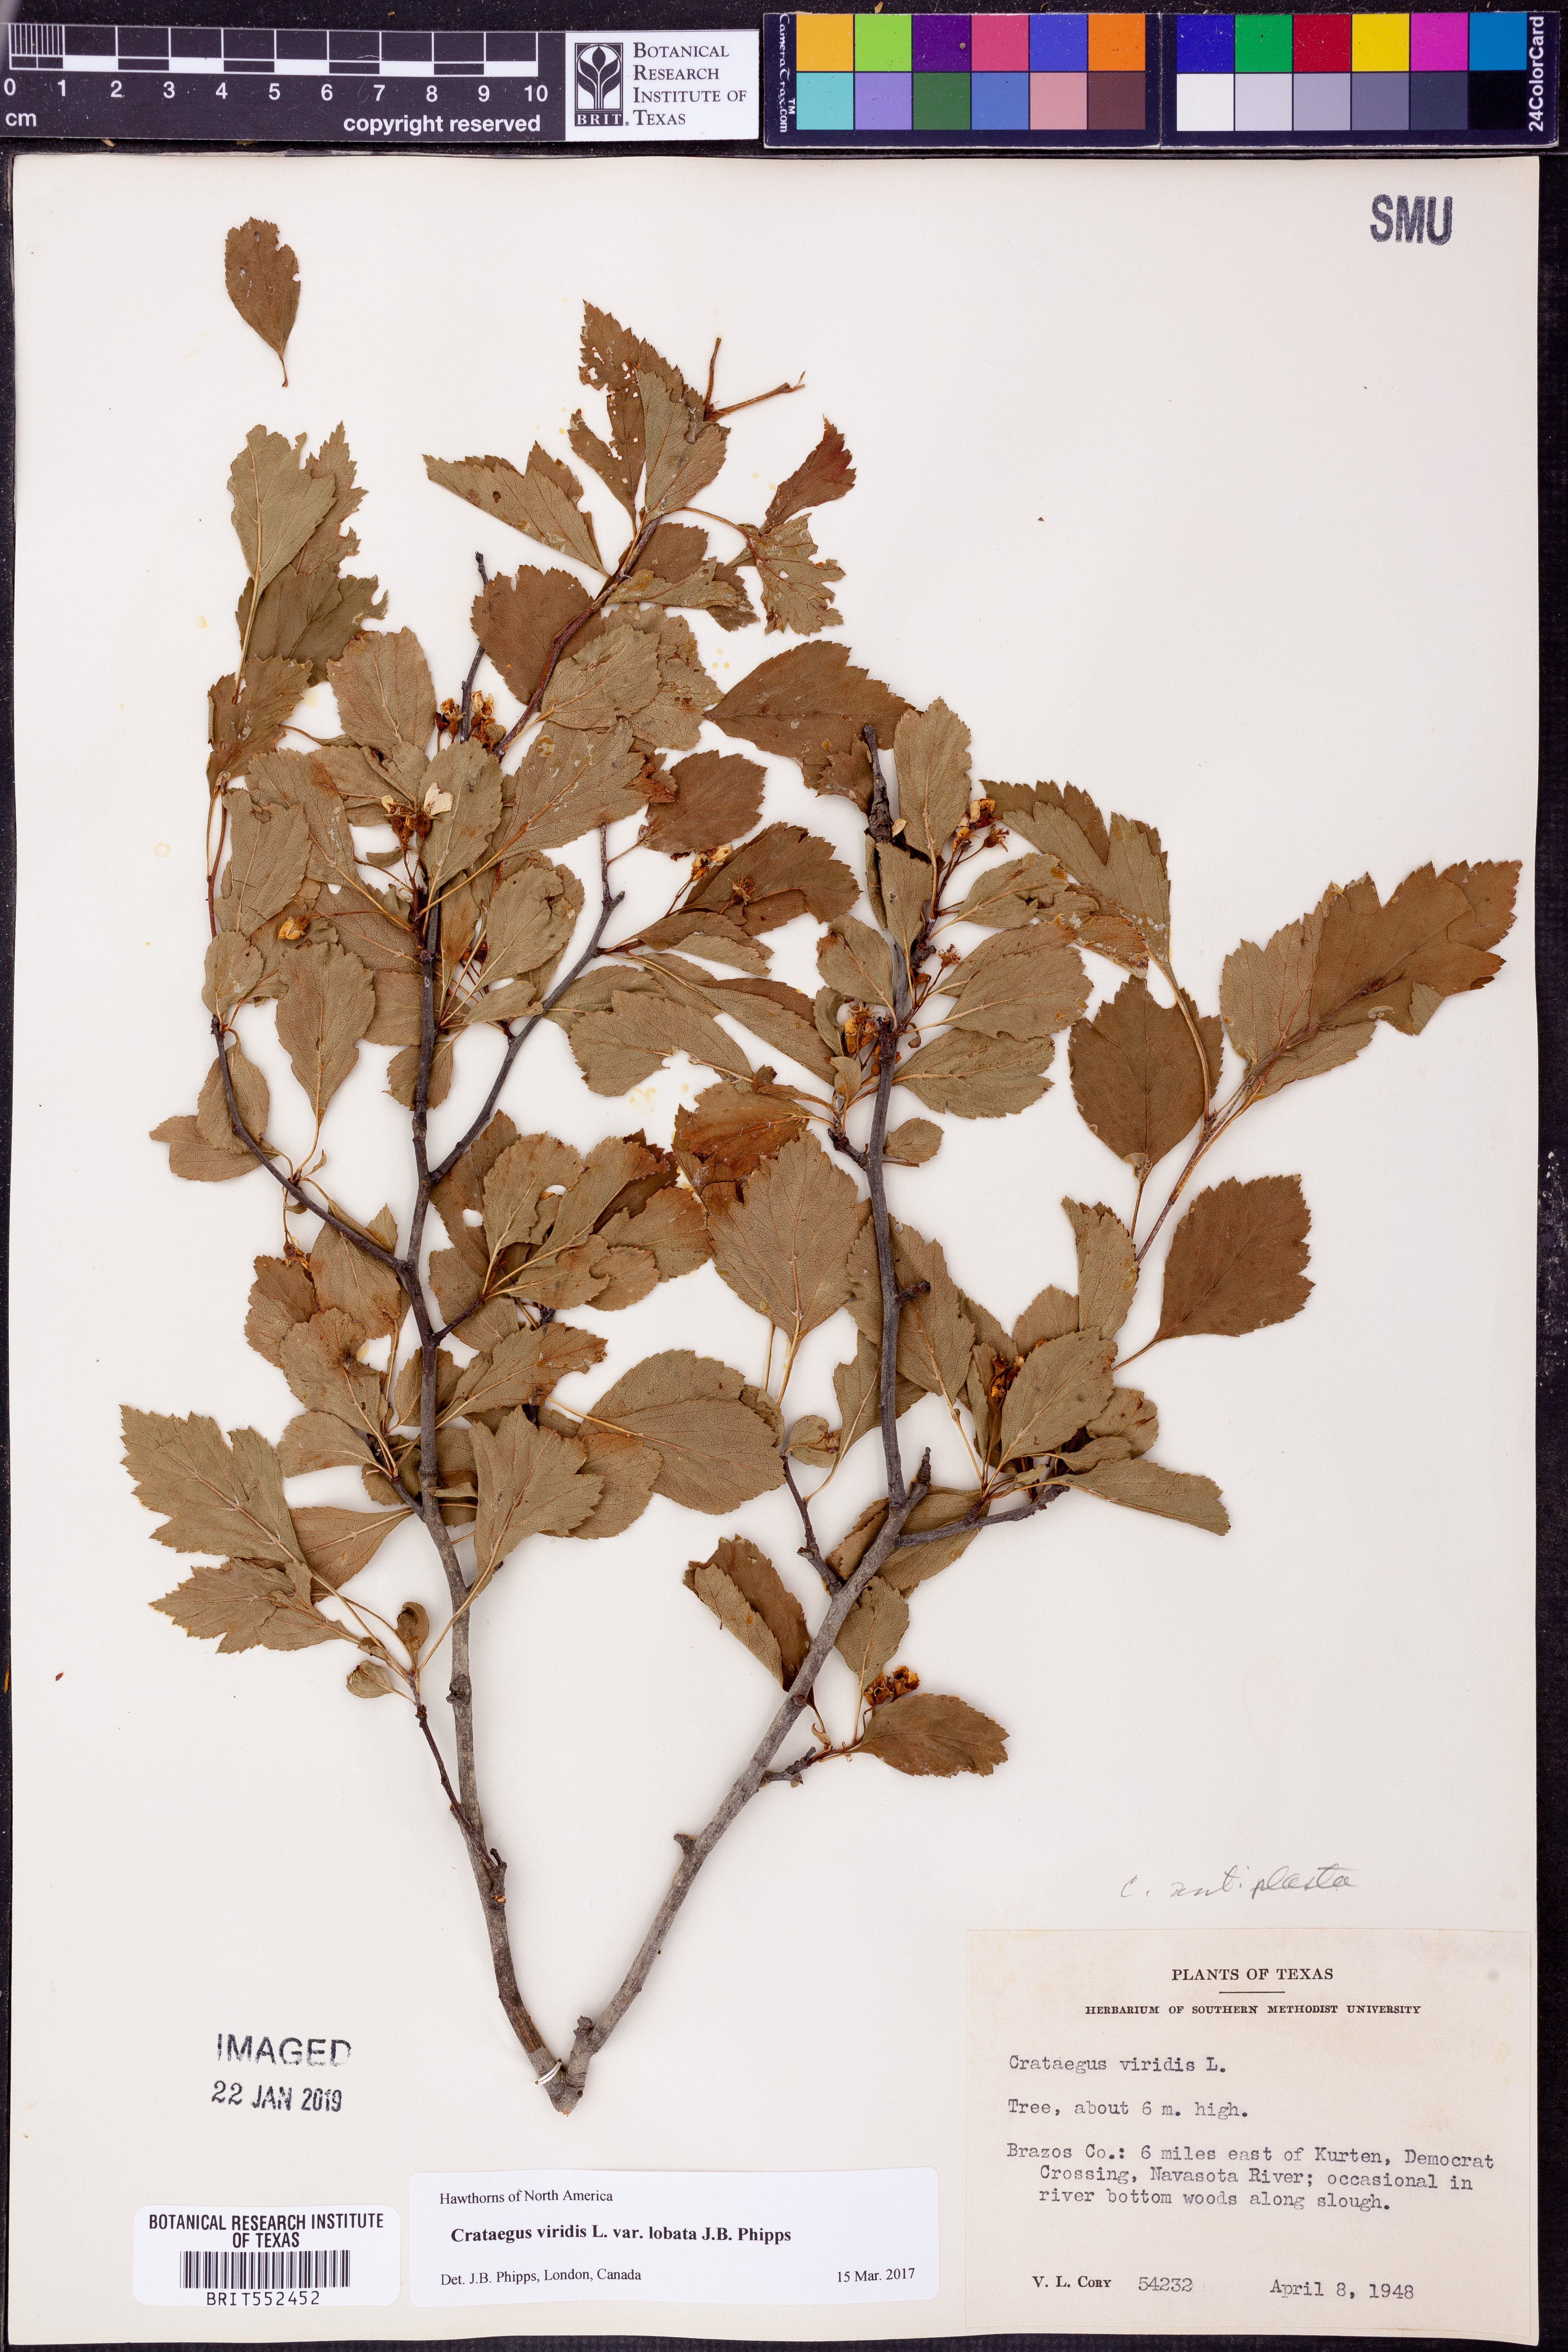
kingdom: Plantae
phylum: Tracheophyta
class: Magnoliopsida
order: Rosales
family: Rosaceae
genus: Crataegus
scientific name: Crataegus viridis
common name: Southernthorn
